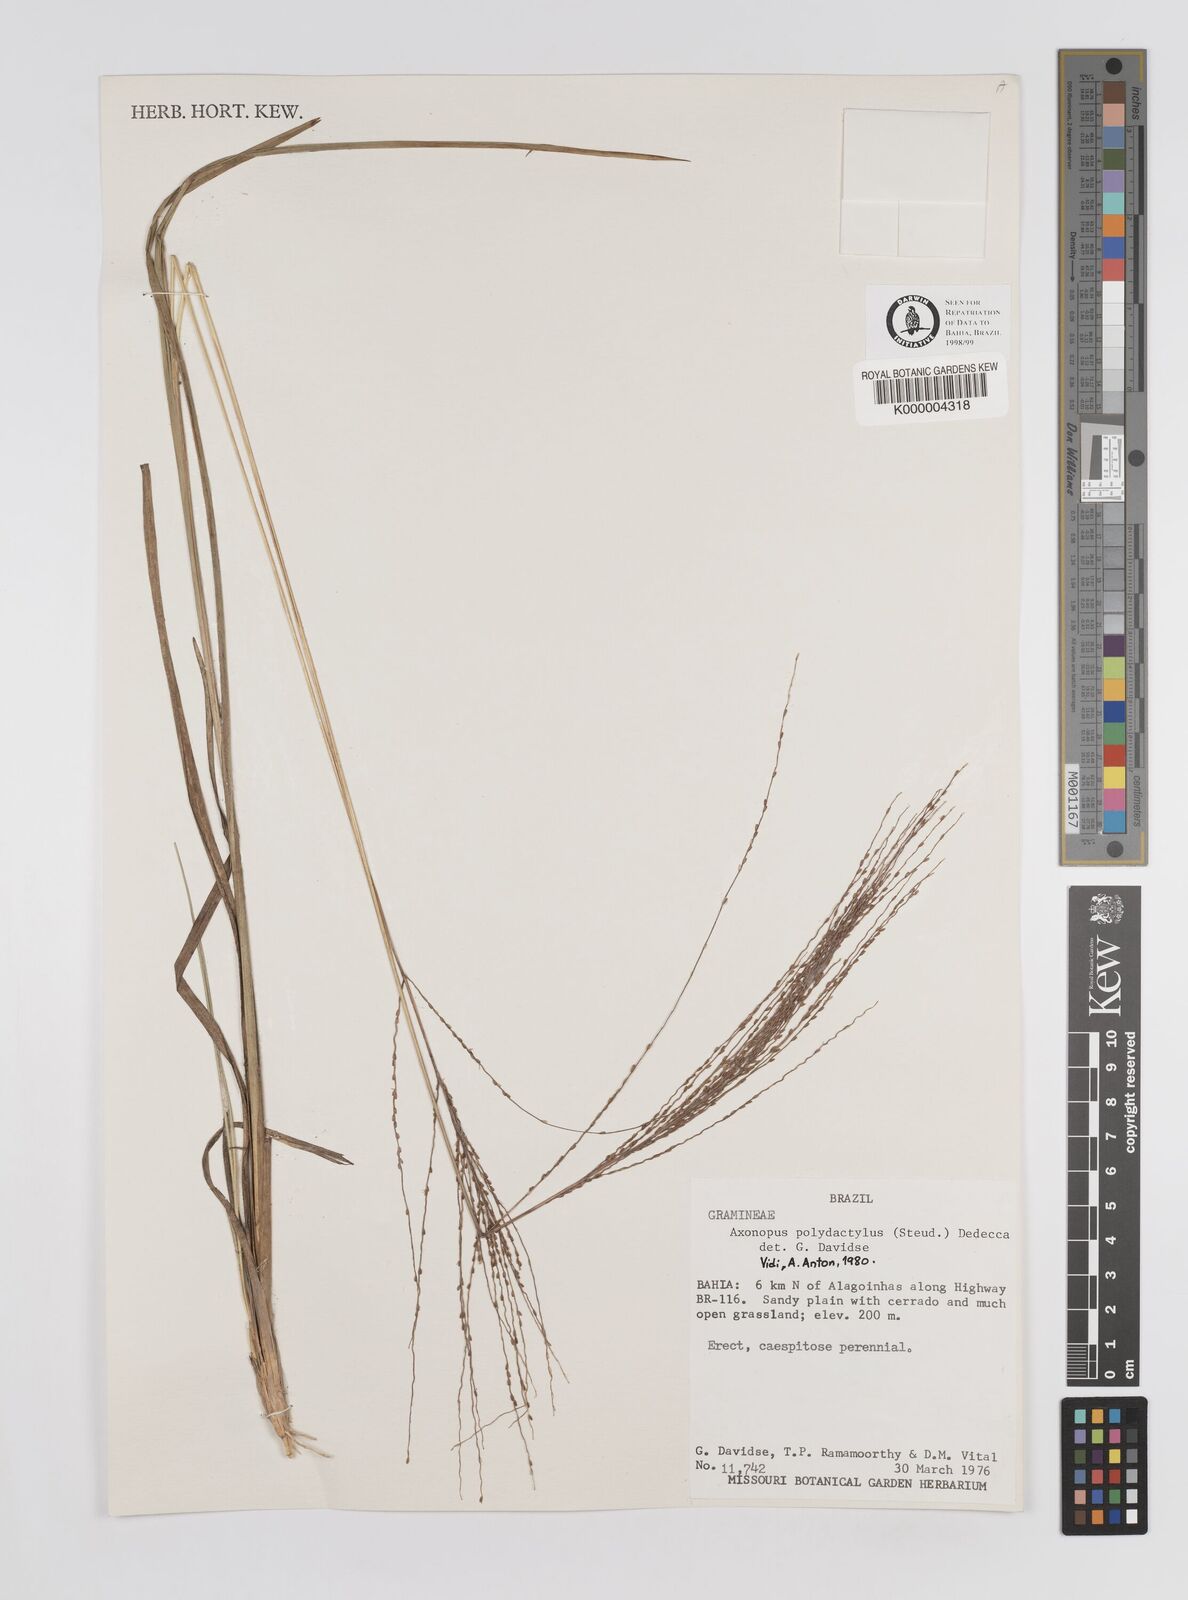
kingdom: Plantae
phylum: Tracheophyta
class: Liliopsida
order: Poales
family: Poaceae
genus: Axonopus
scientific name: Axonopus polydactylus
